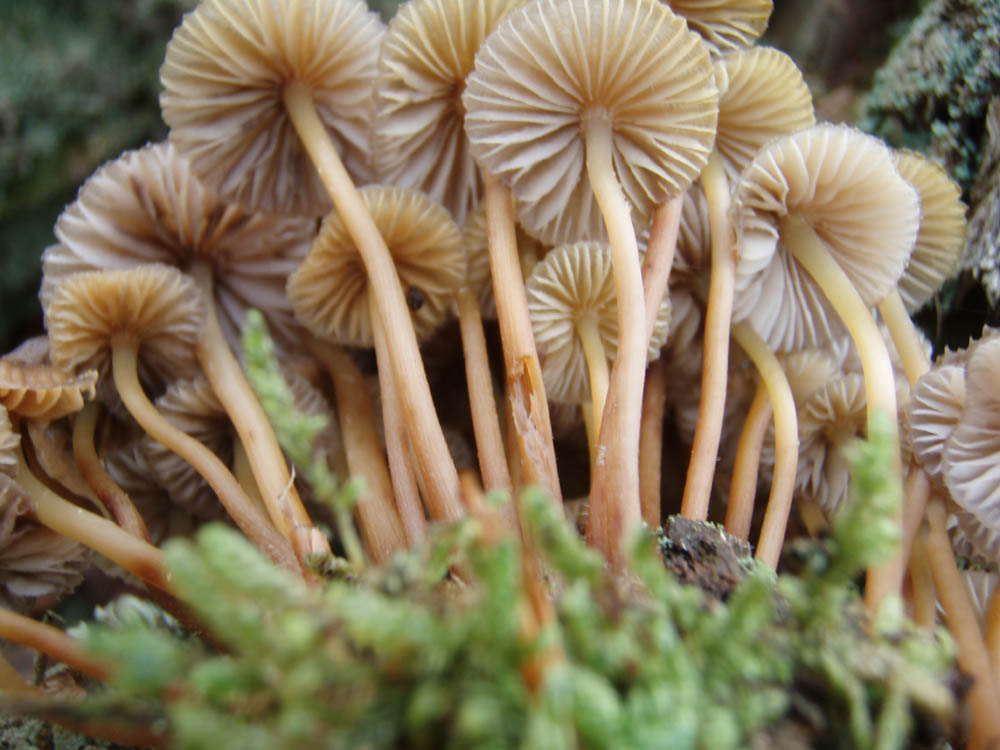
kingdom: Fungi
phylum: Basidiomycota
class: Agaricomycetes
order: Agaricales
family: Mycenaceae
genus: Mycena
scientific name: Mycena inclinata
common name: nikkende huesvamp
